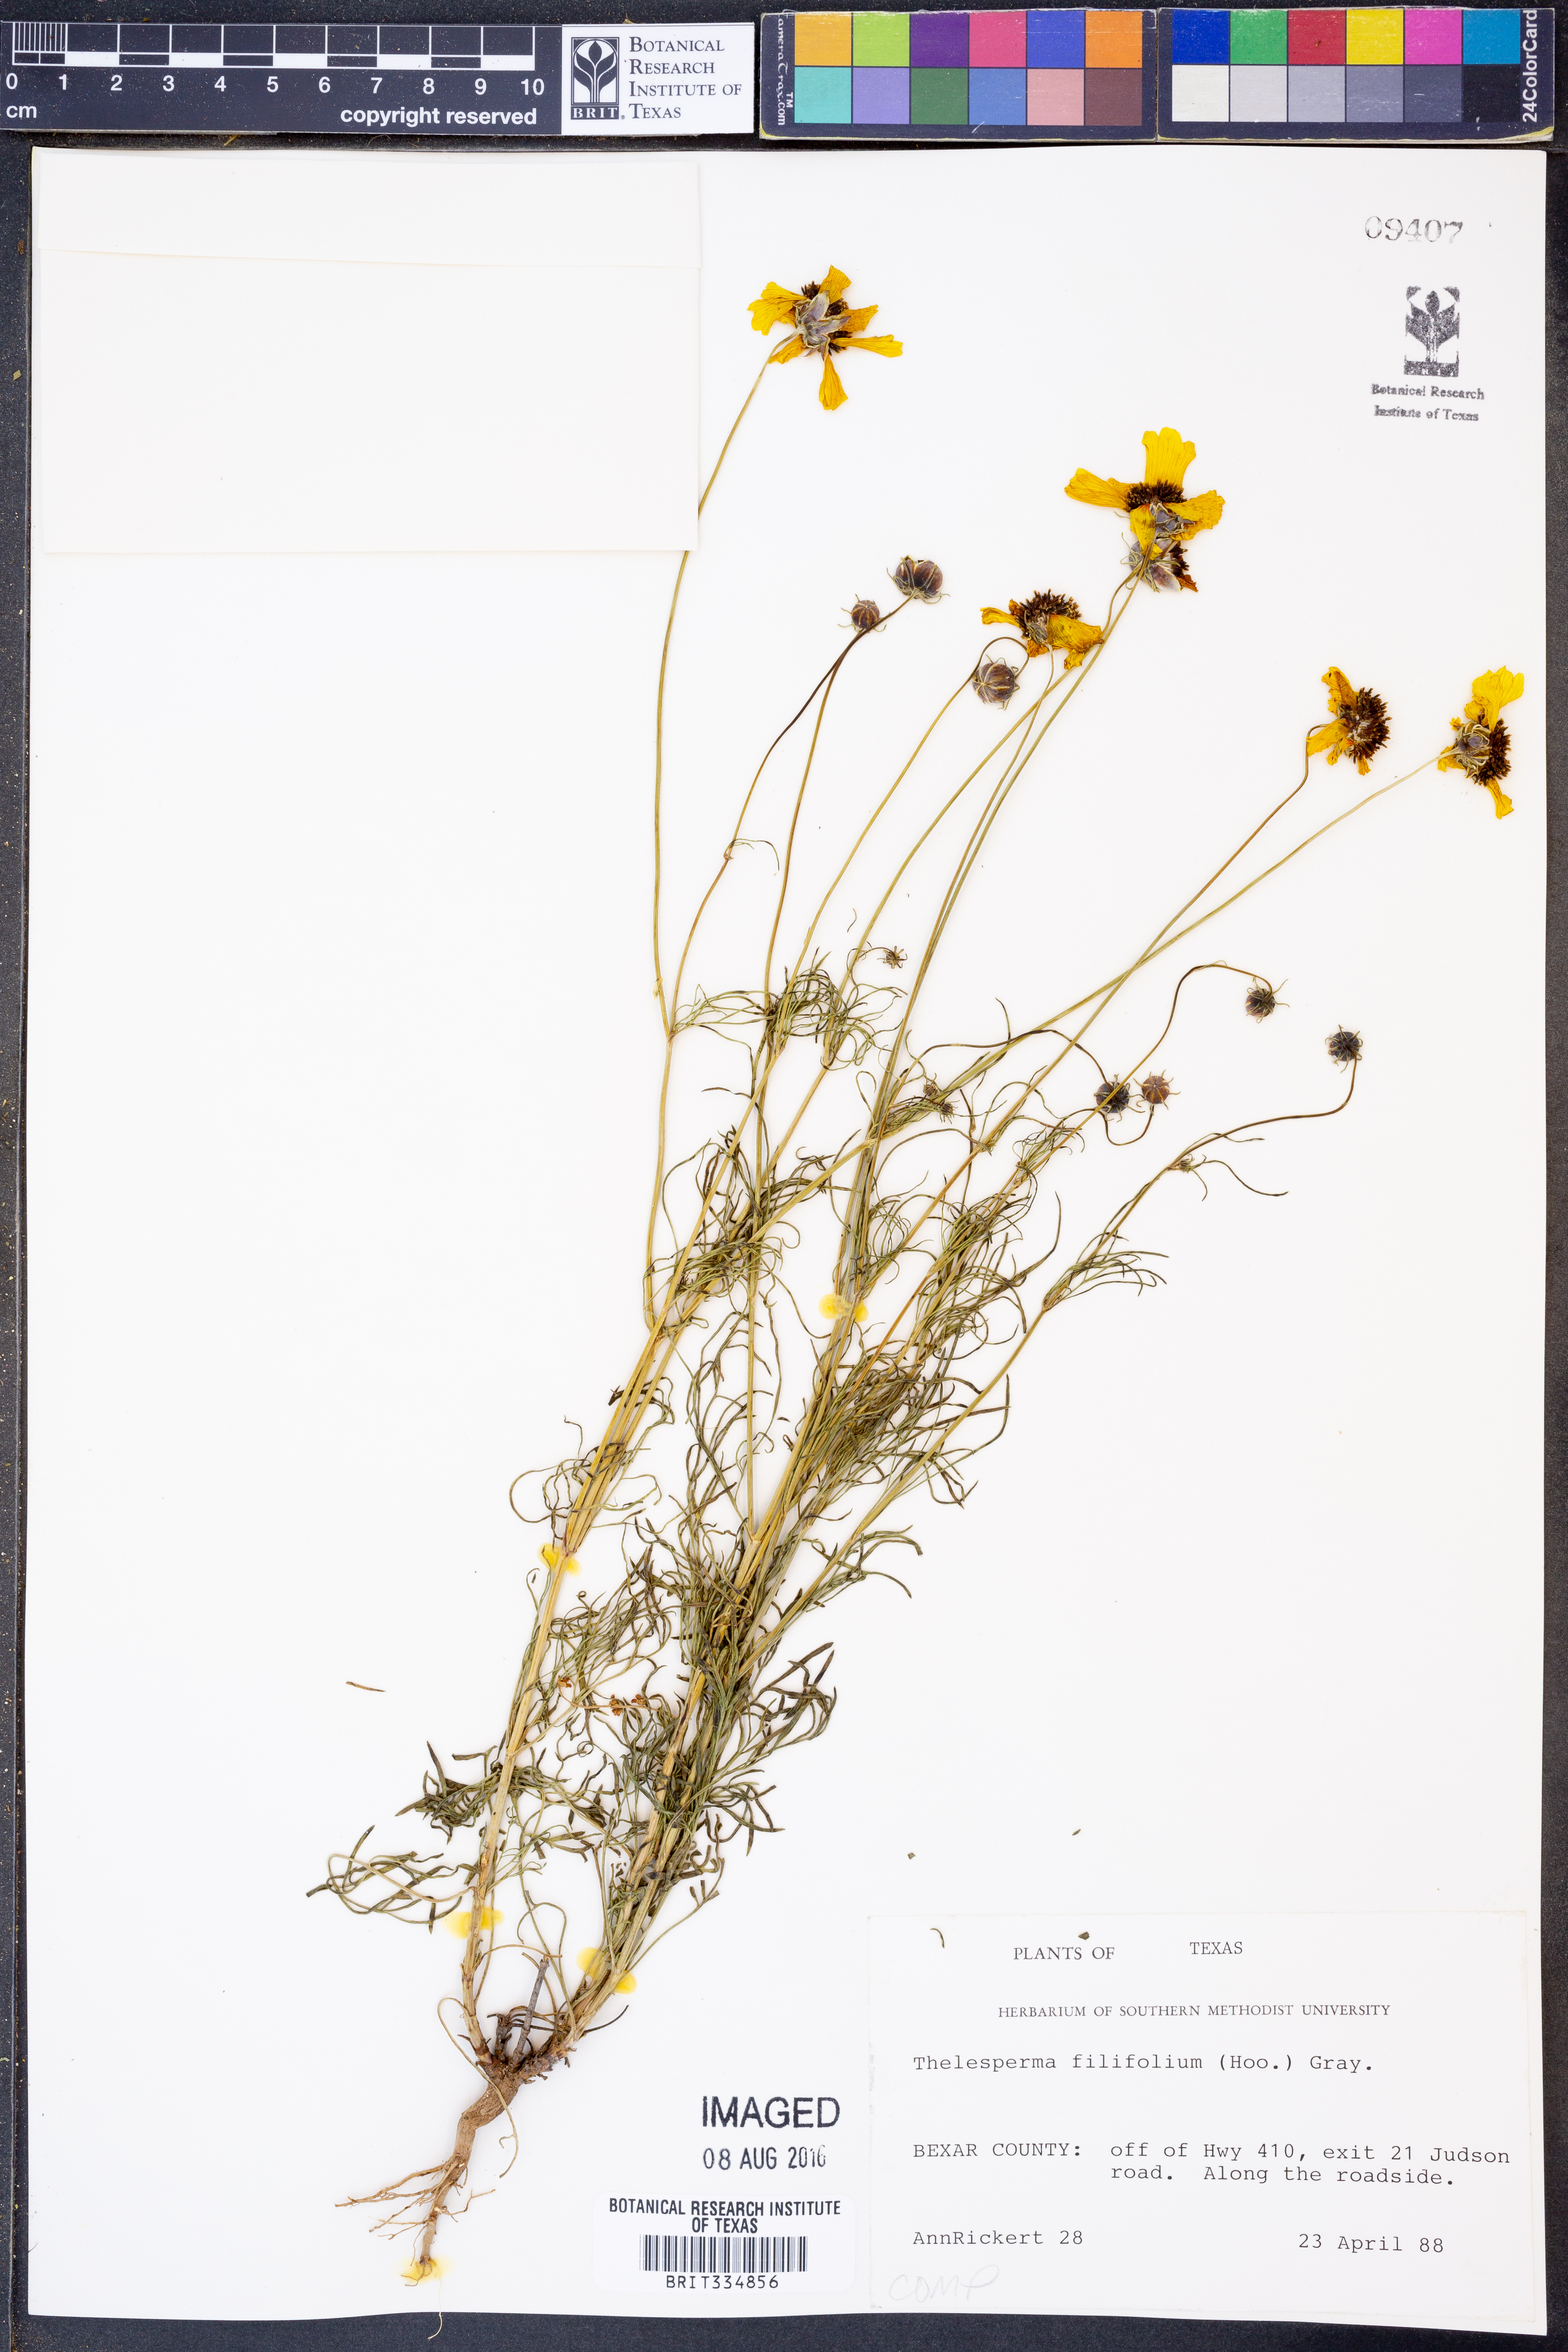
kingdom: Plantae
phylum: Tracheophyta
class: Magnoliopsida
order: Asterales
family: Asteraceae
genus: Thelesperma
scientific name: Thelesperma filifolium
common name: Stiff greenthread
